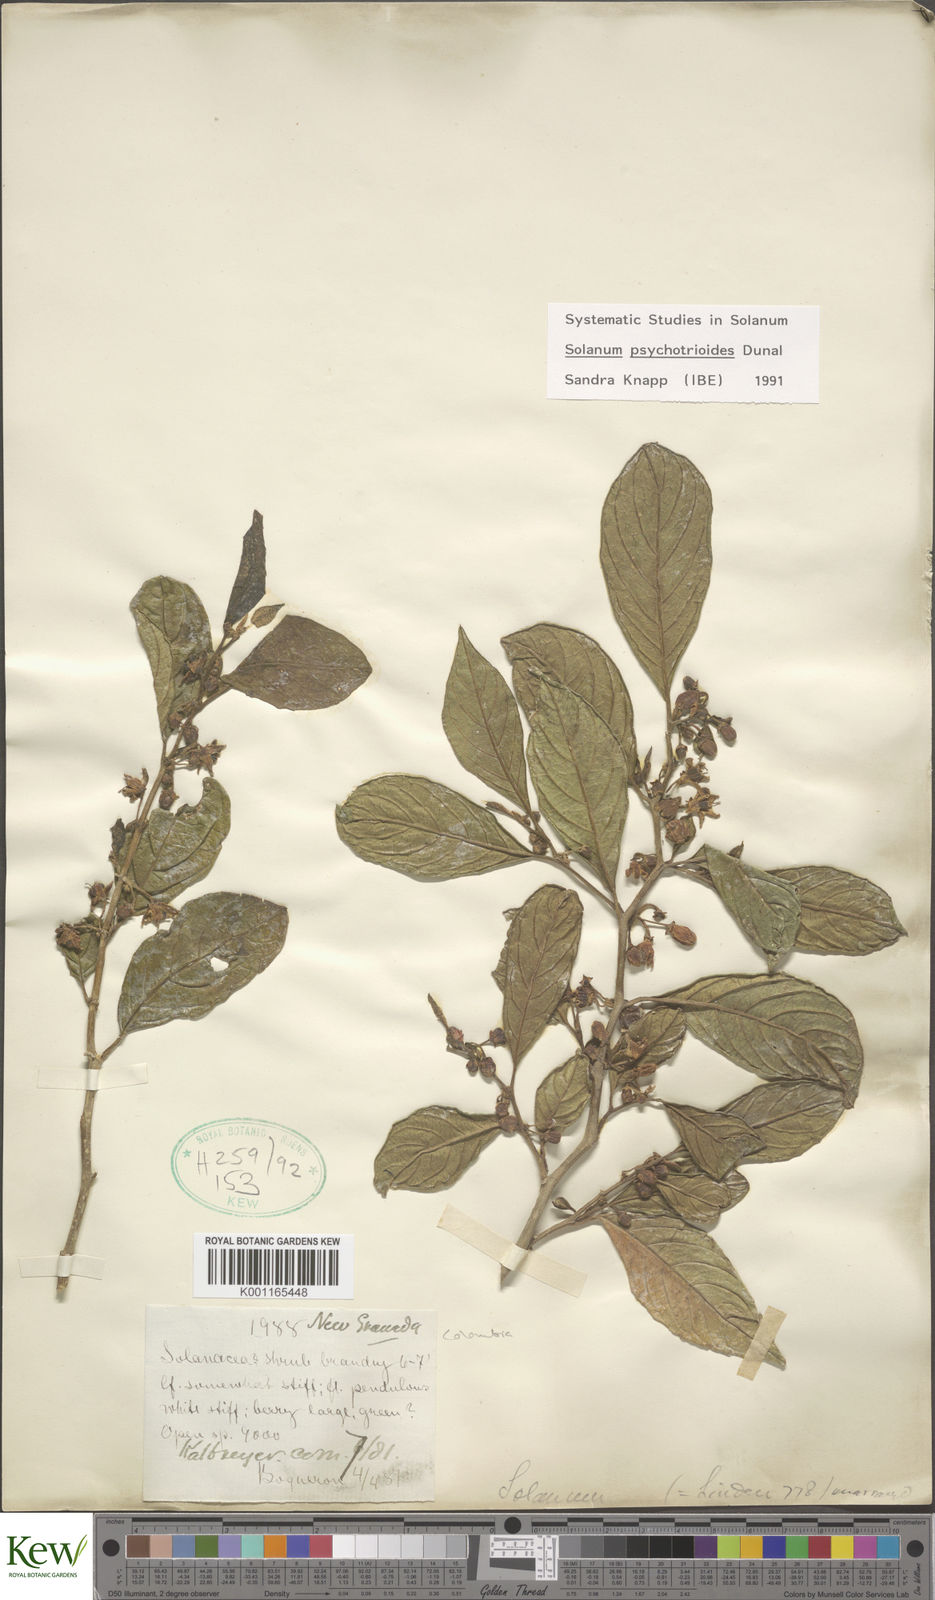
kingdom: Plantae
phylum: Tracheophyta
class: Magnoliopsida
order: Solanales
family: Solanaceae
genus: Solanum
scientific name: Solanum psychotrioides
